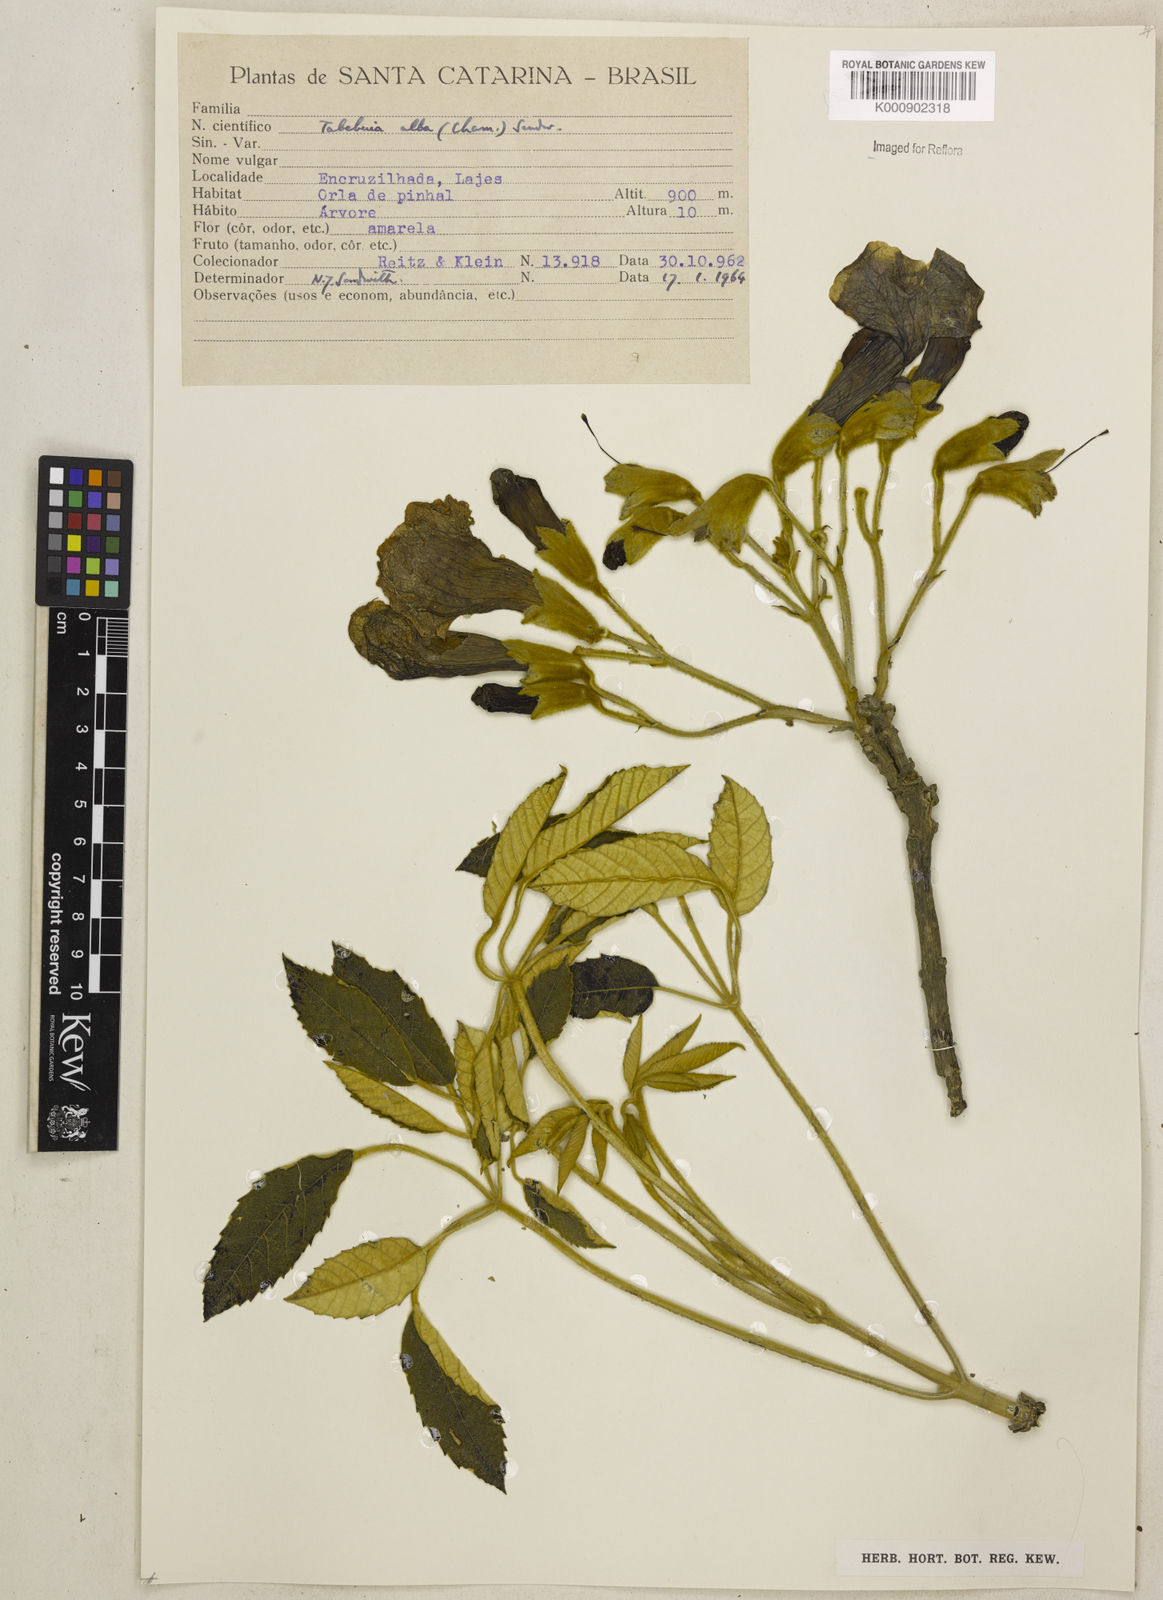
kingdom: Plantae
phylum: Tracheophyta
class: Magnoliopsida
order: Lamiales
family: Bignoniaceae
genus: Handroanthus
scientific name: Handroanthus albus
